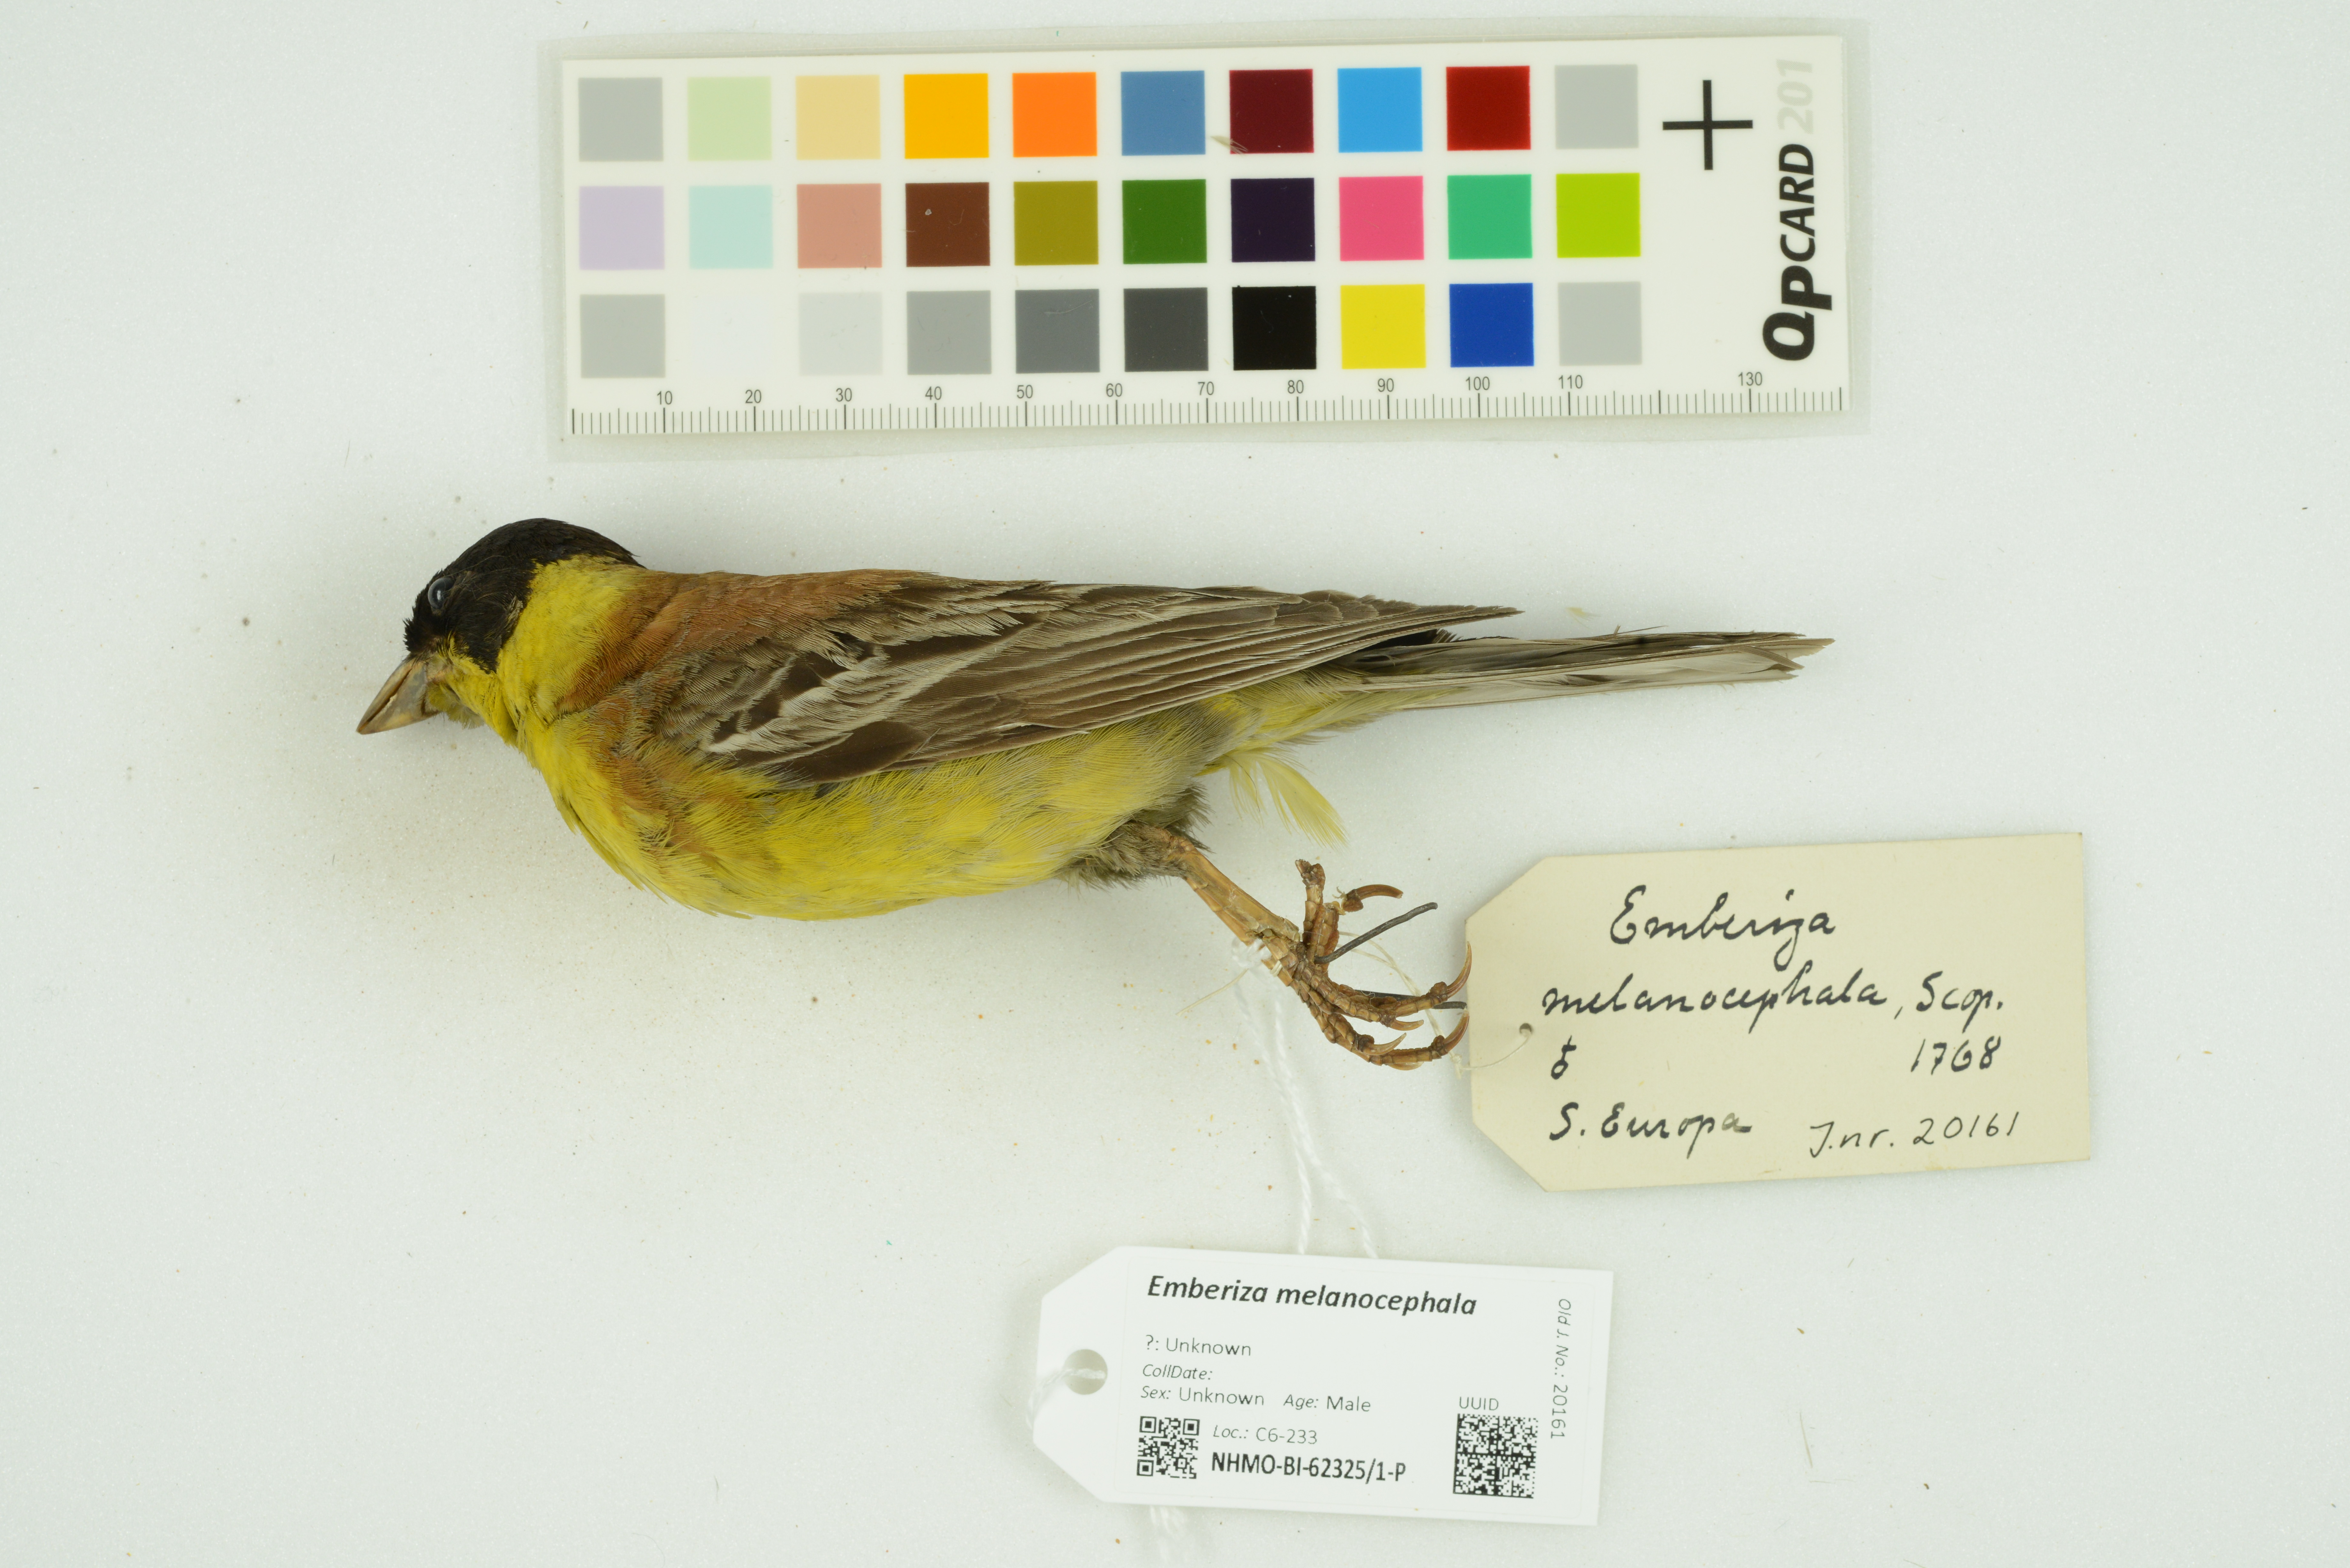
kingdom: Animalia
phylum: Chordata
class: Aves
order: Passeriformes
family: Emberizidae
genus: Emberiza
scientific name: Emberiza melanocephala
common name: Black-headed bunting
